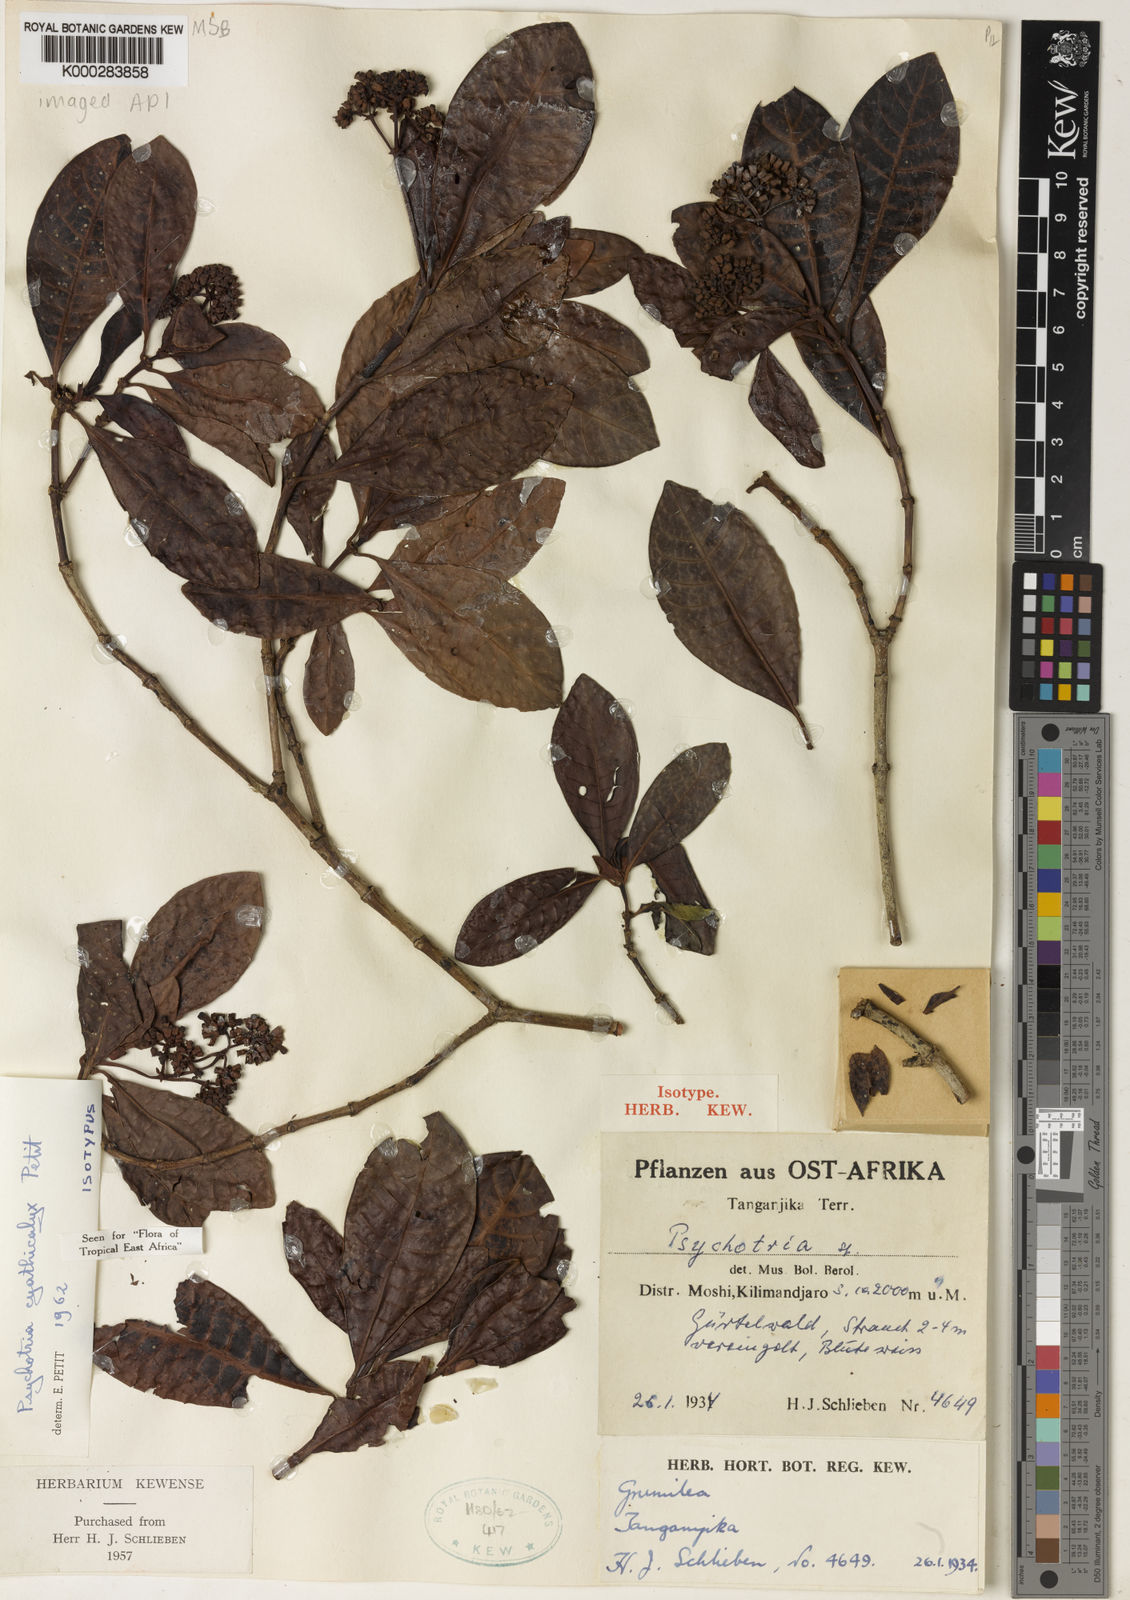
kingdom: Plantae
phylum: Tracheophyta
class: Magnoliopsida
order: Gentianales
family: Rubiaceae
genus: Psychotria
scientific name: Psychotria cyathicalyx
